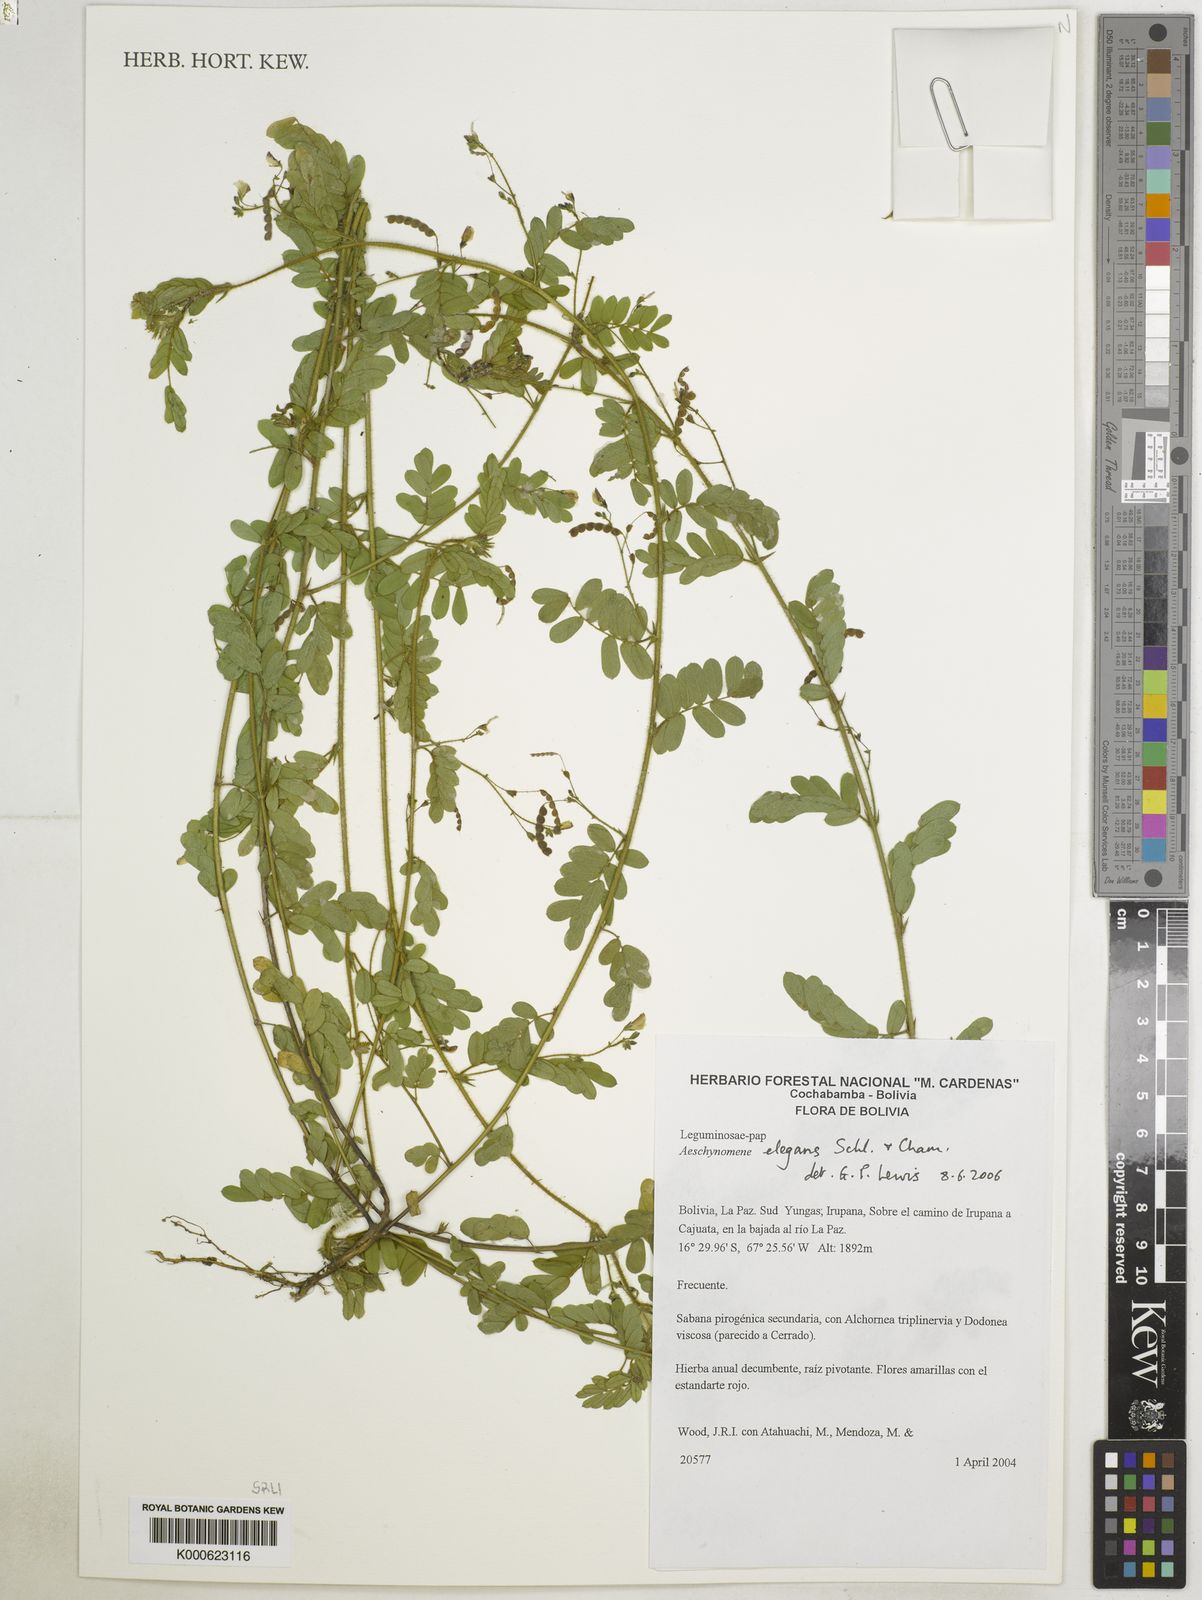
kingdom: Plantae
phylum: Tracheophyta
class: Magnoliopsida
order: Fabales
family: Fabaceae
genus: Ctenodon
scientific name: Ctenodon elegans
